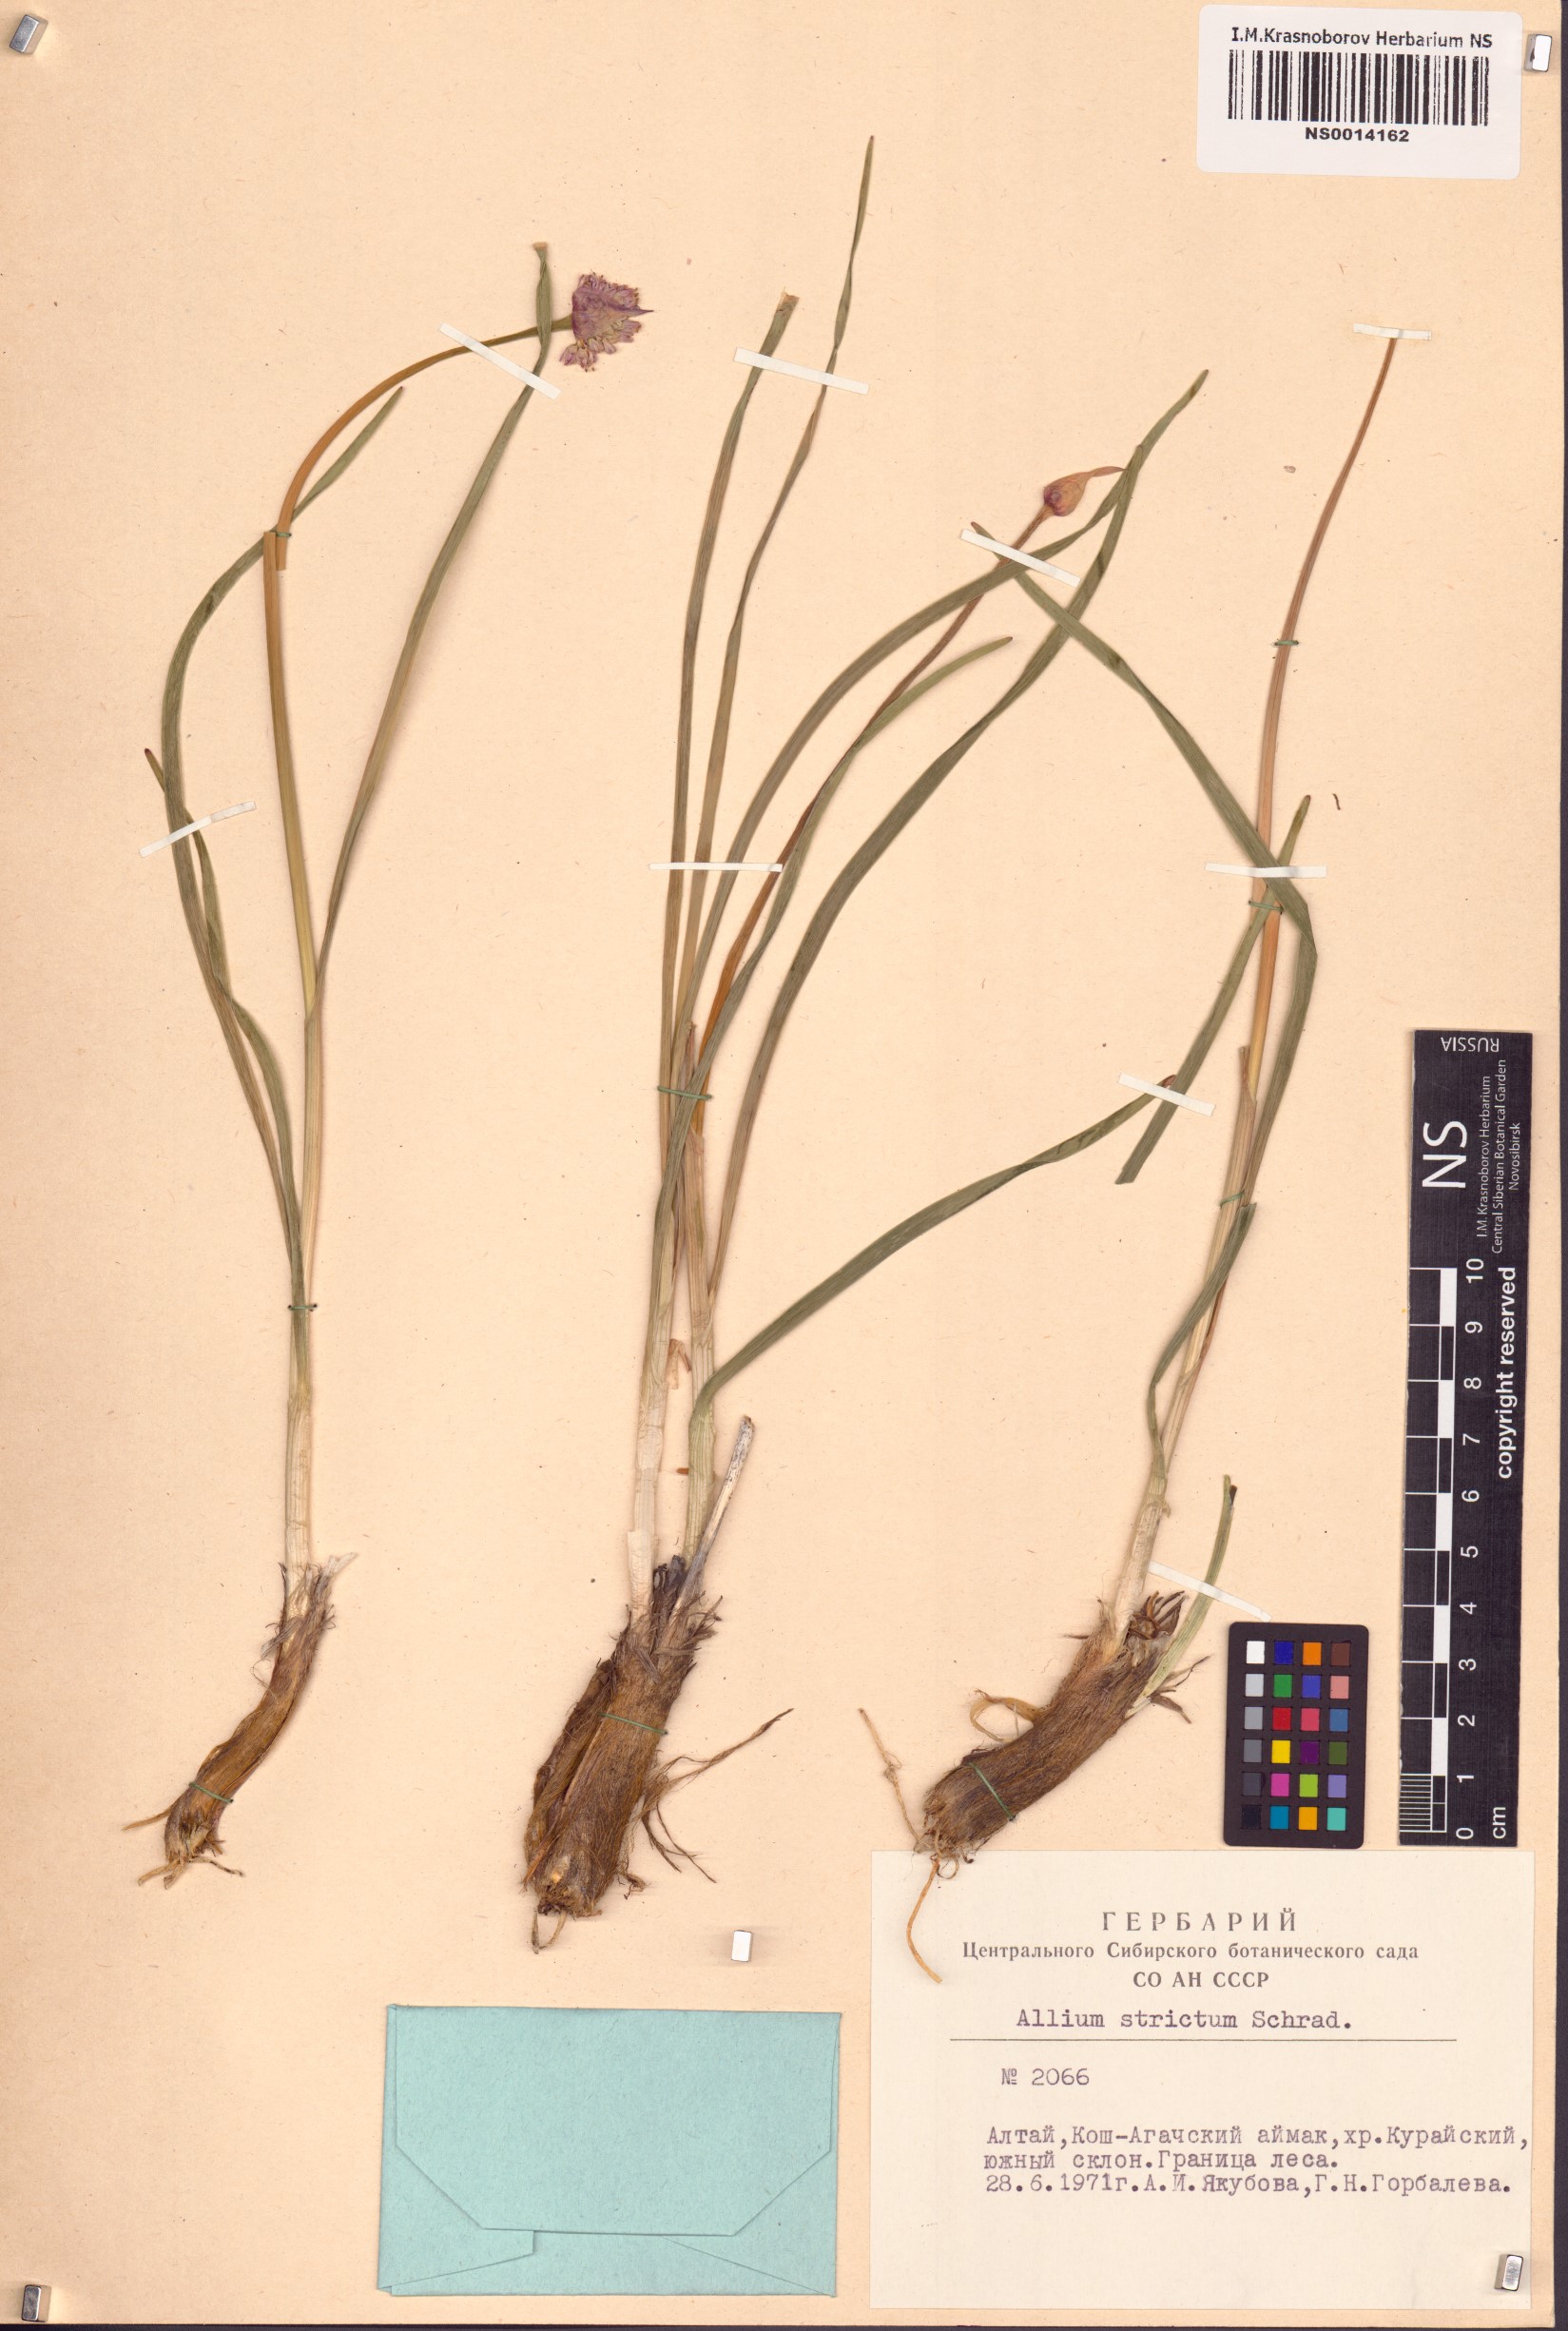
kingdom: Plantae
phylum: Tracheophyta
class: Liliopsida
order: Asparagales
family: Amaryllidaceae
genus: Allium
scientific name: Allium strictum
